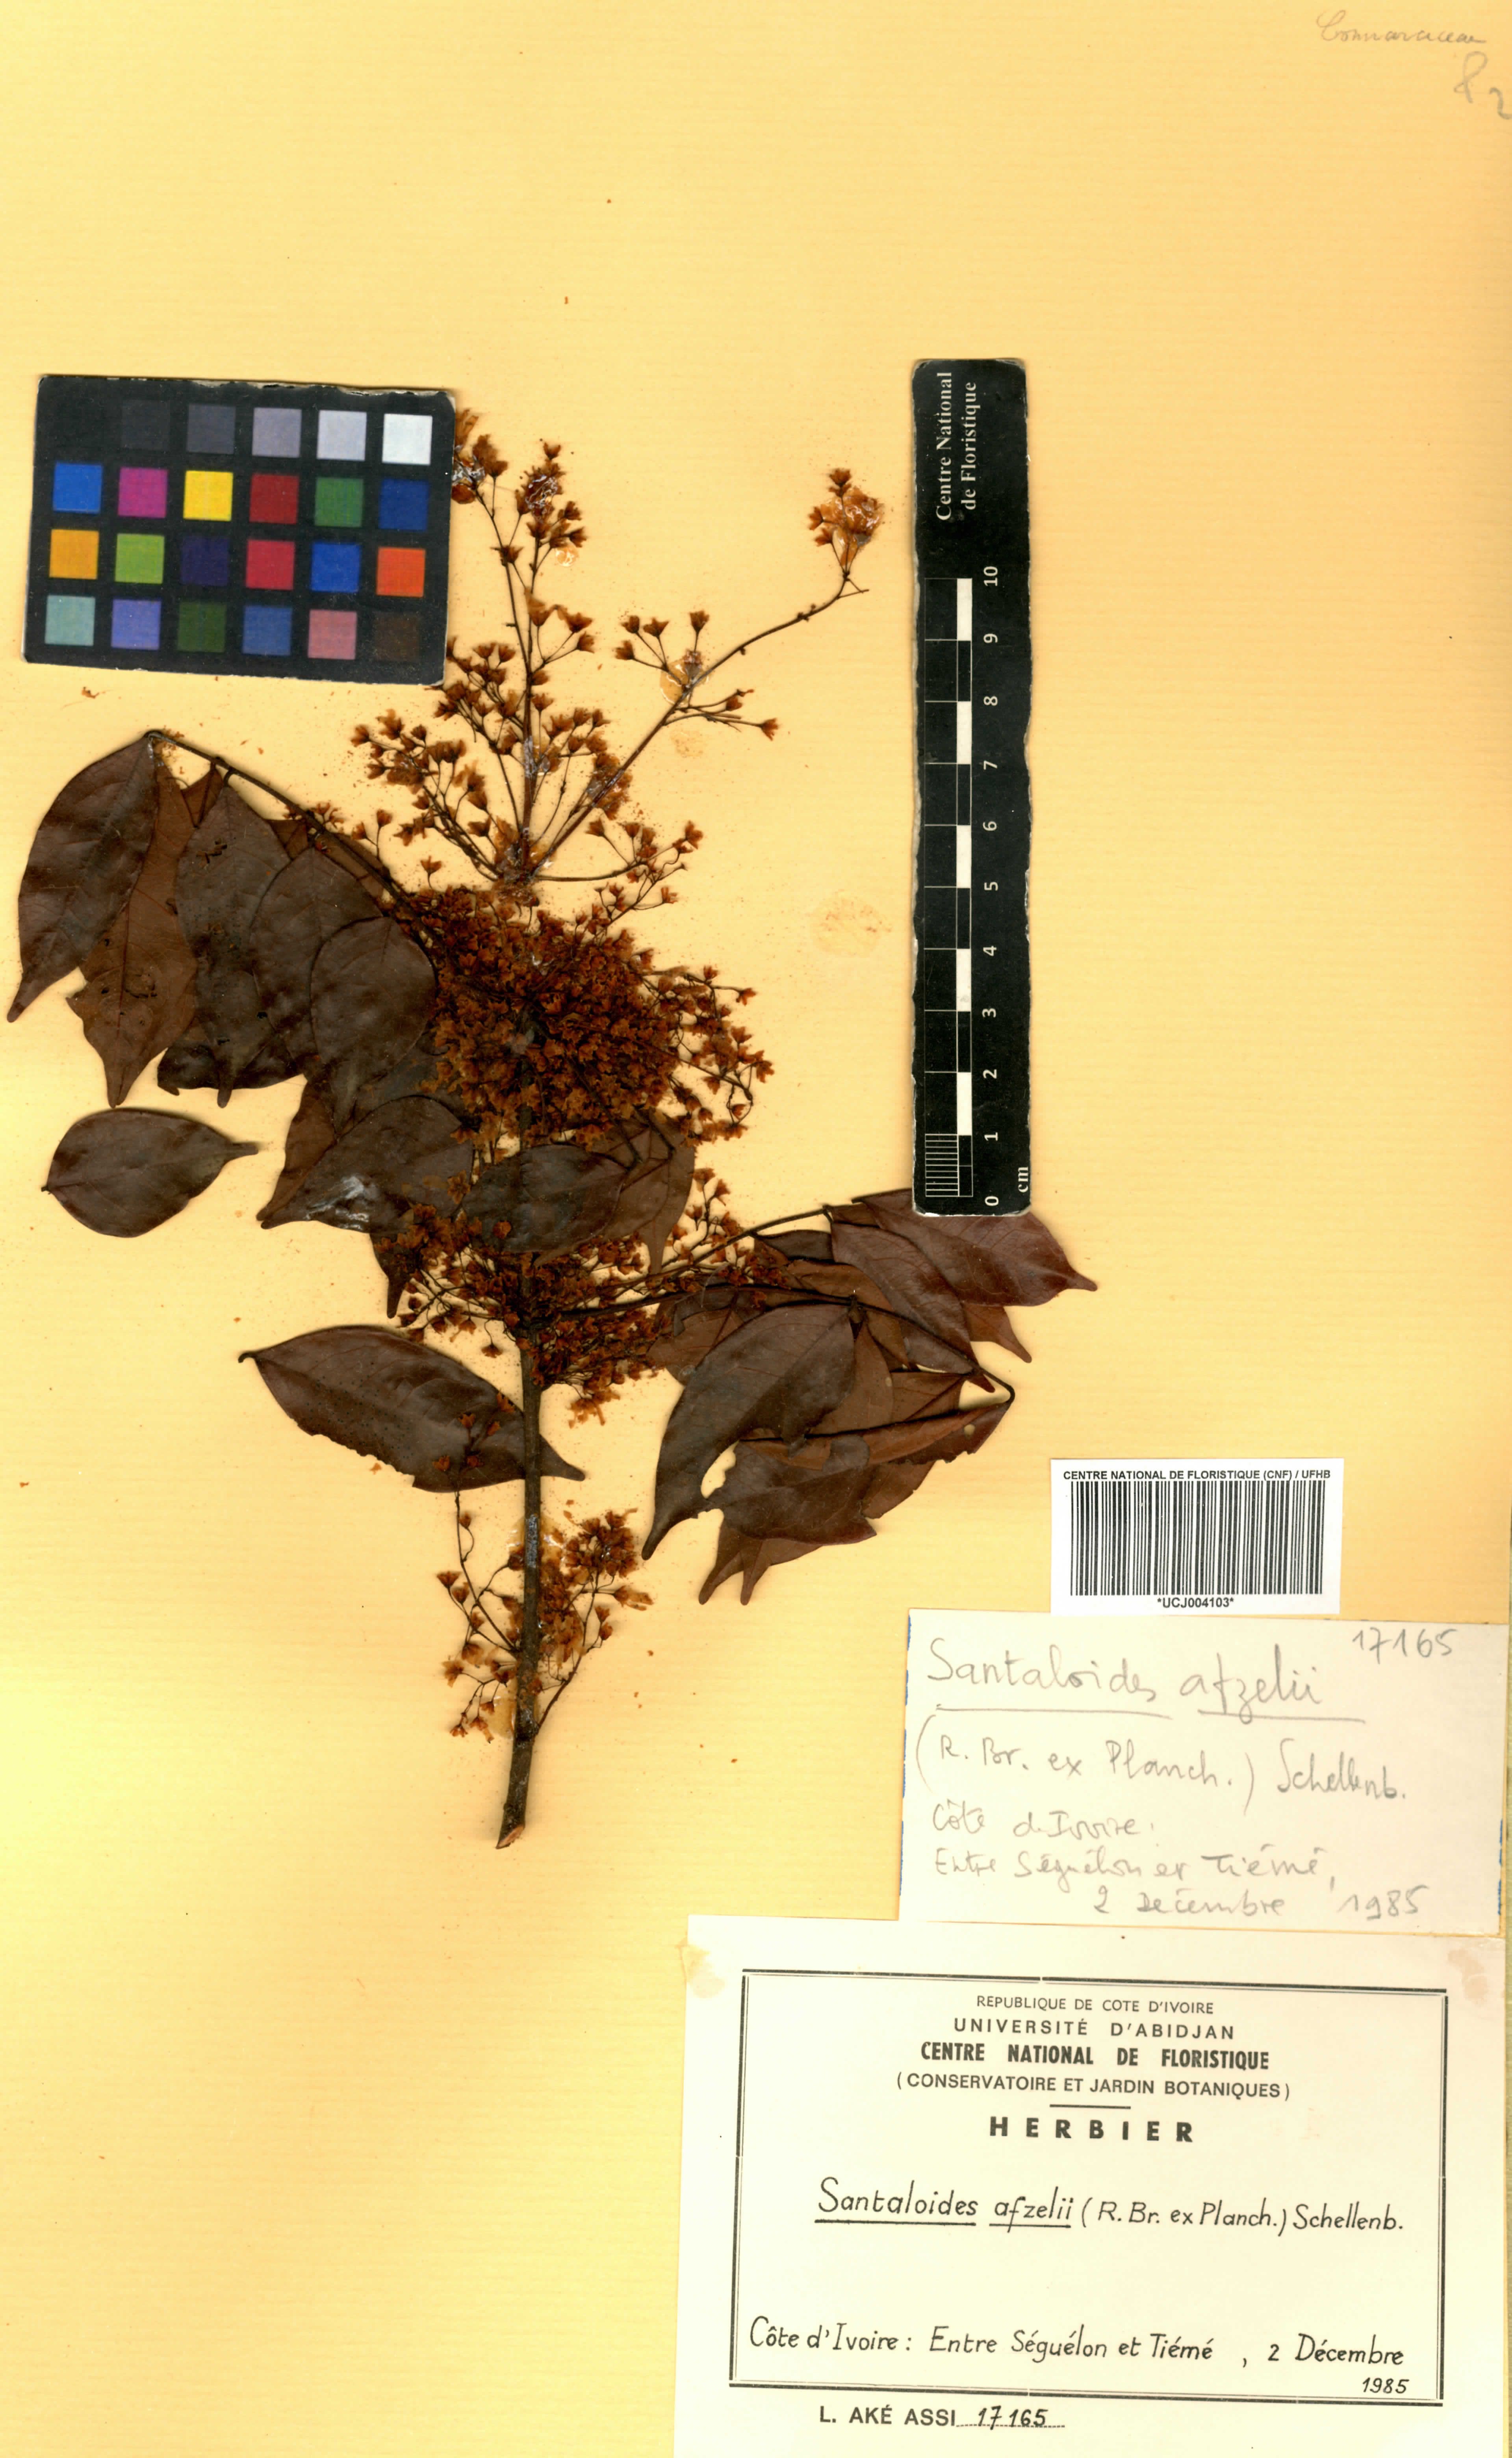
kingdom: Plantae
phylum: Tracheophyta
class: Magnoliopsida
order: Oxalidales
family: Connaraceae
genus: Rourea
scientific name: Rourea minor
